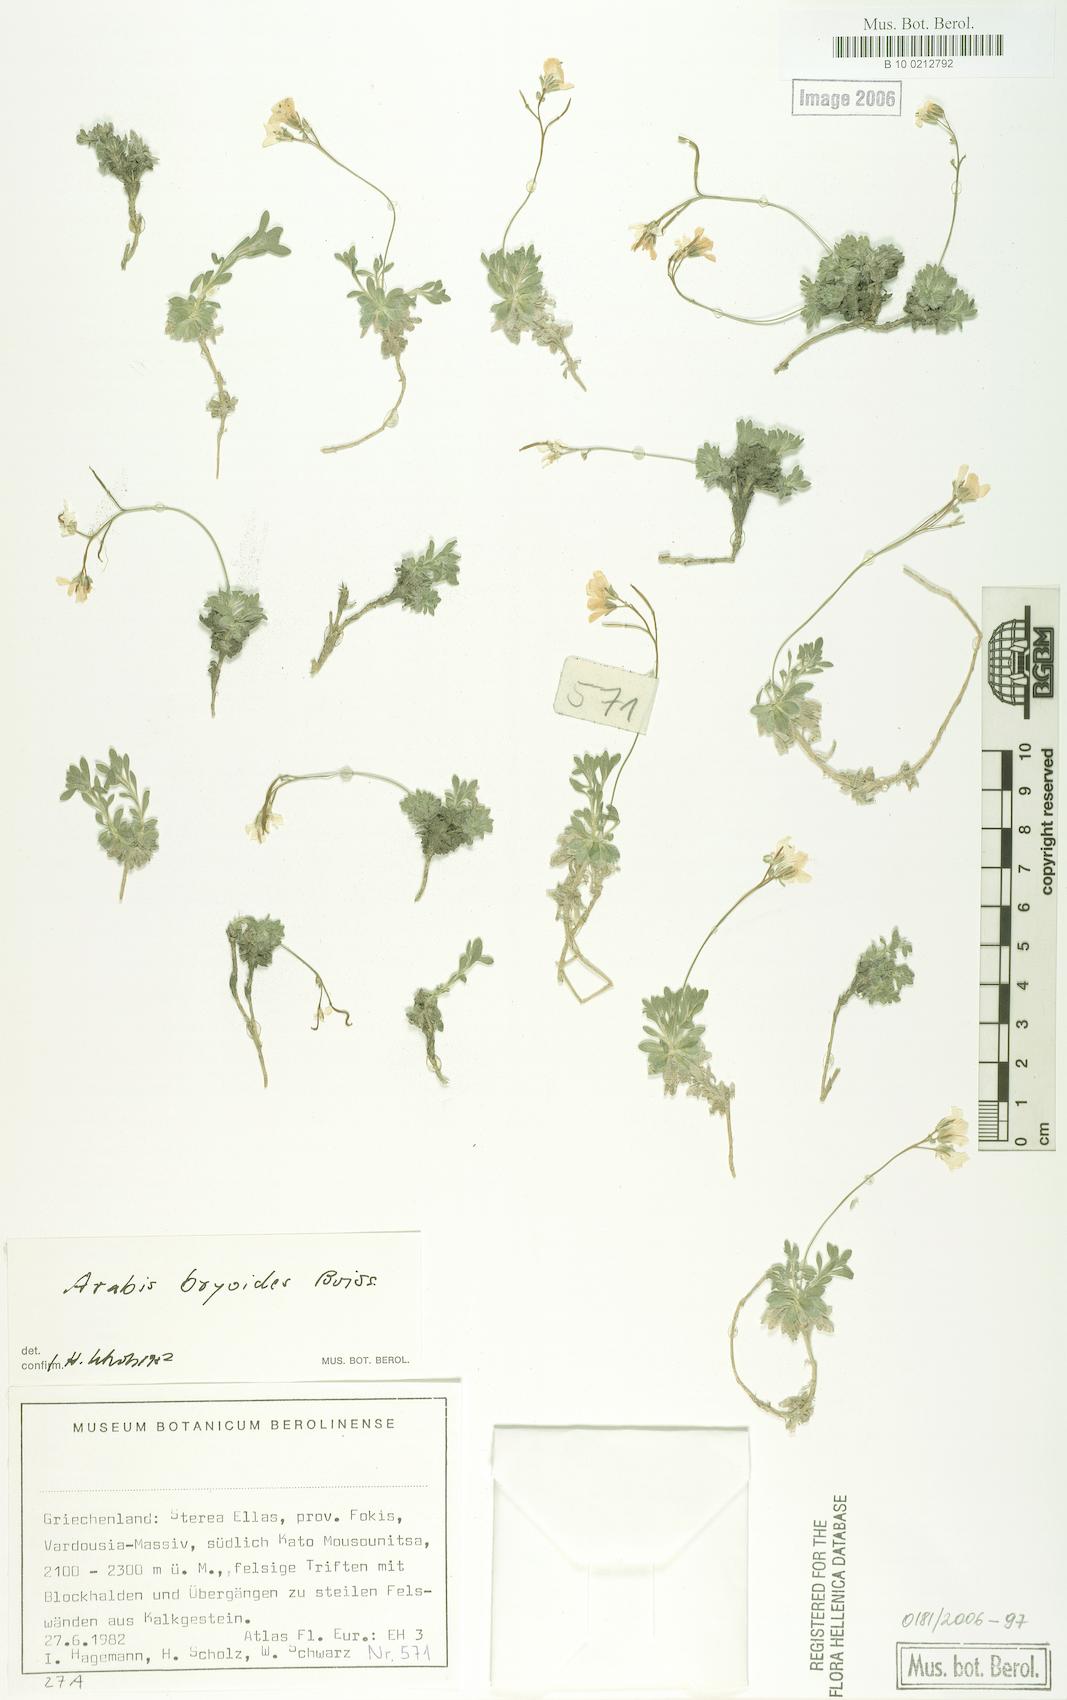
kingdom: Plantae
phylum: Tracheophyta
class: Magnoliopsida
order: Brassicales
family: Brassicaceae
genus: Arabis
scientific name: Arabis bryoides
